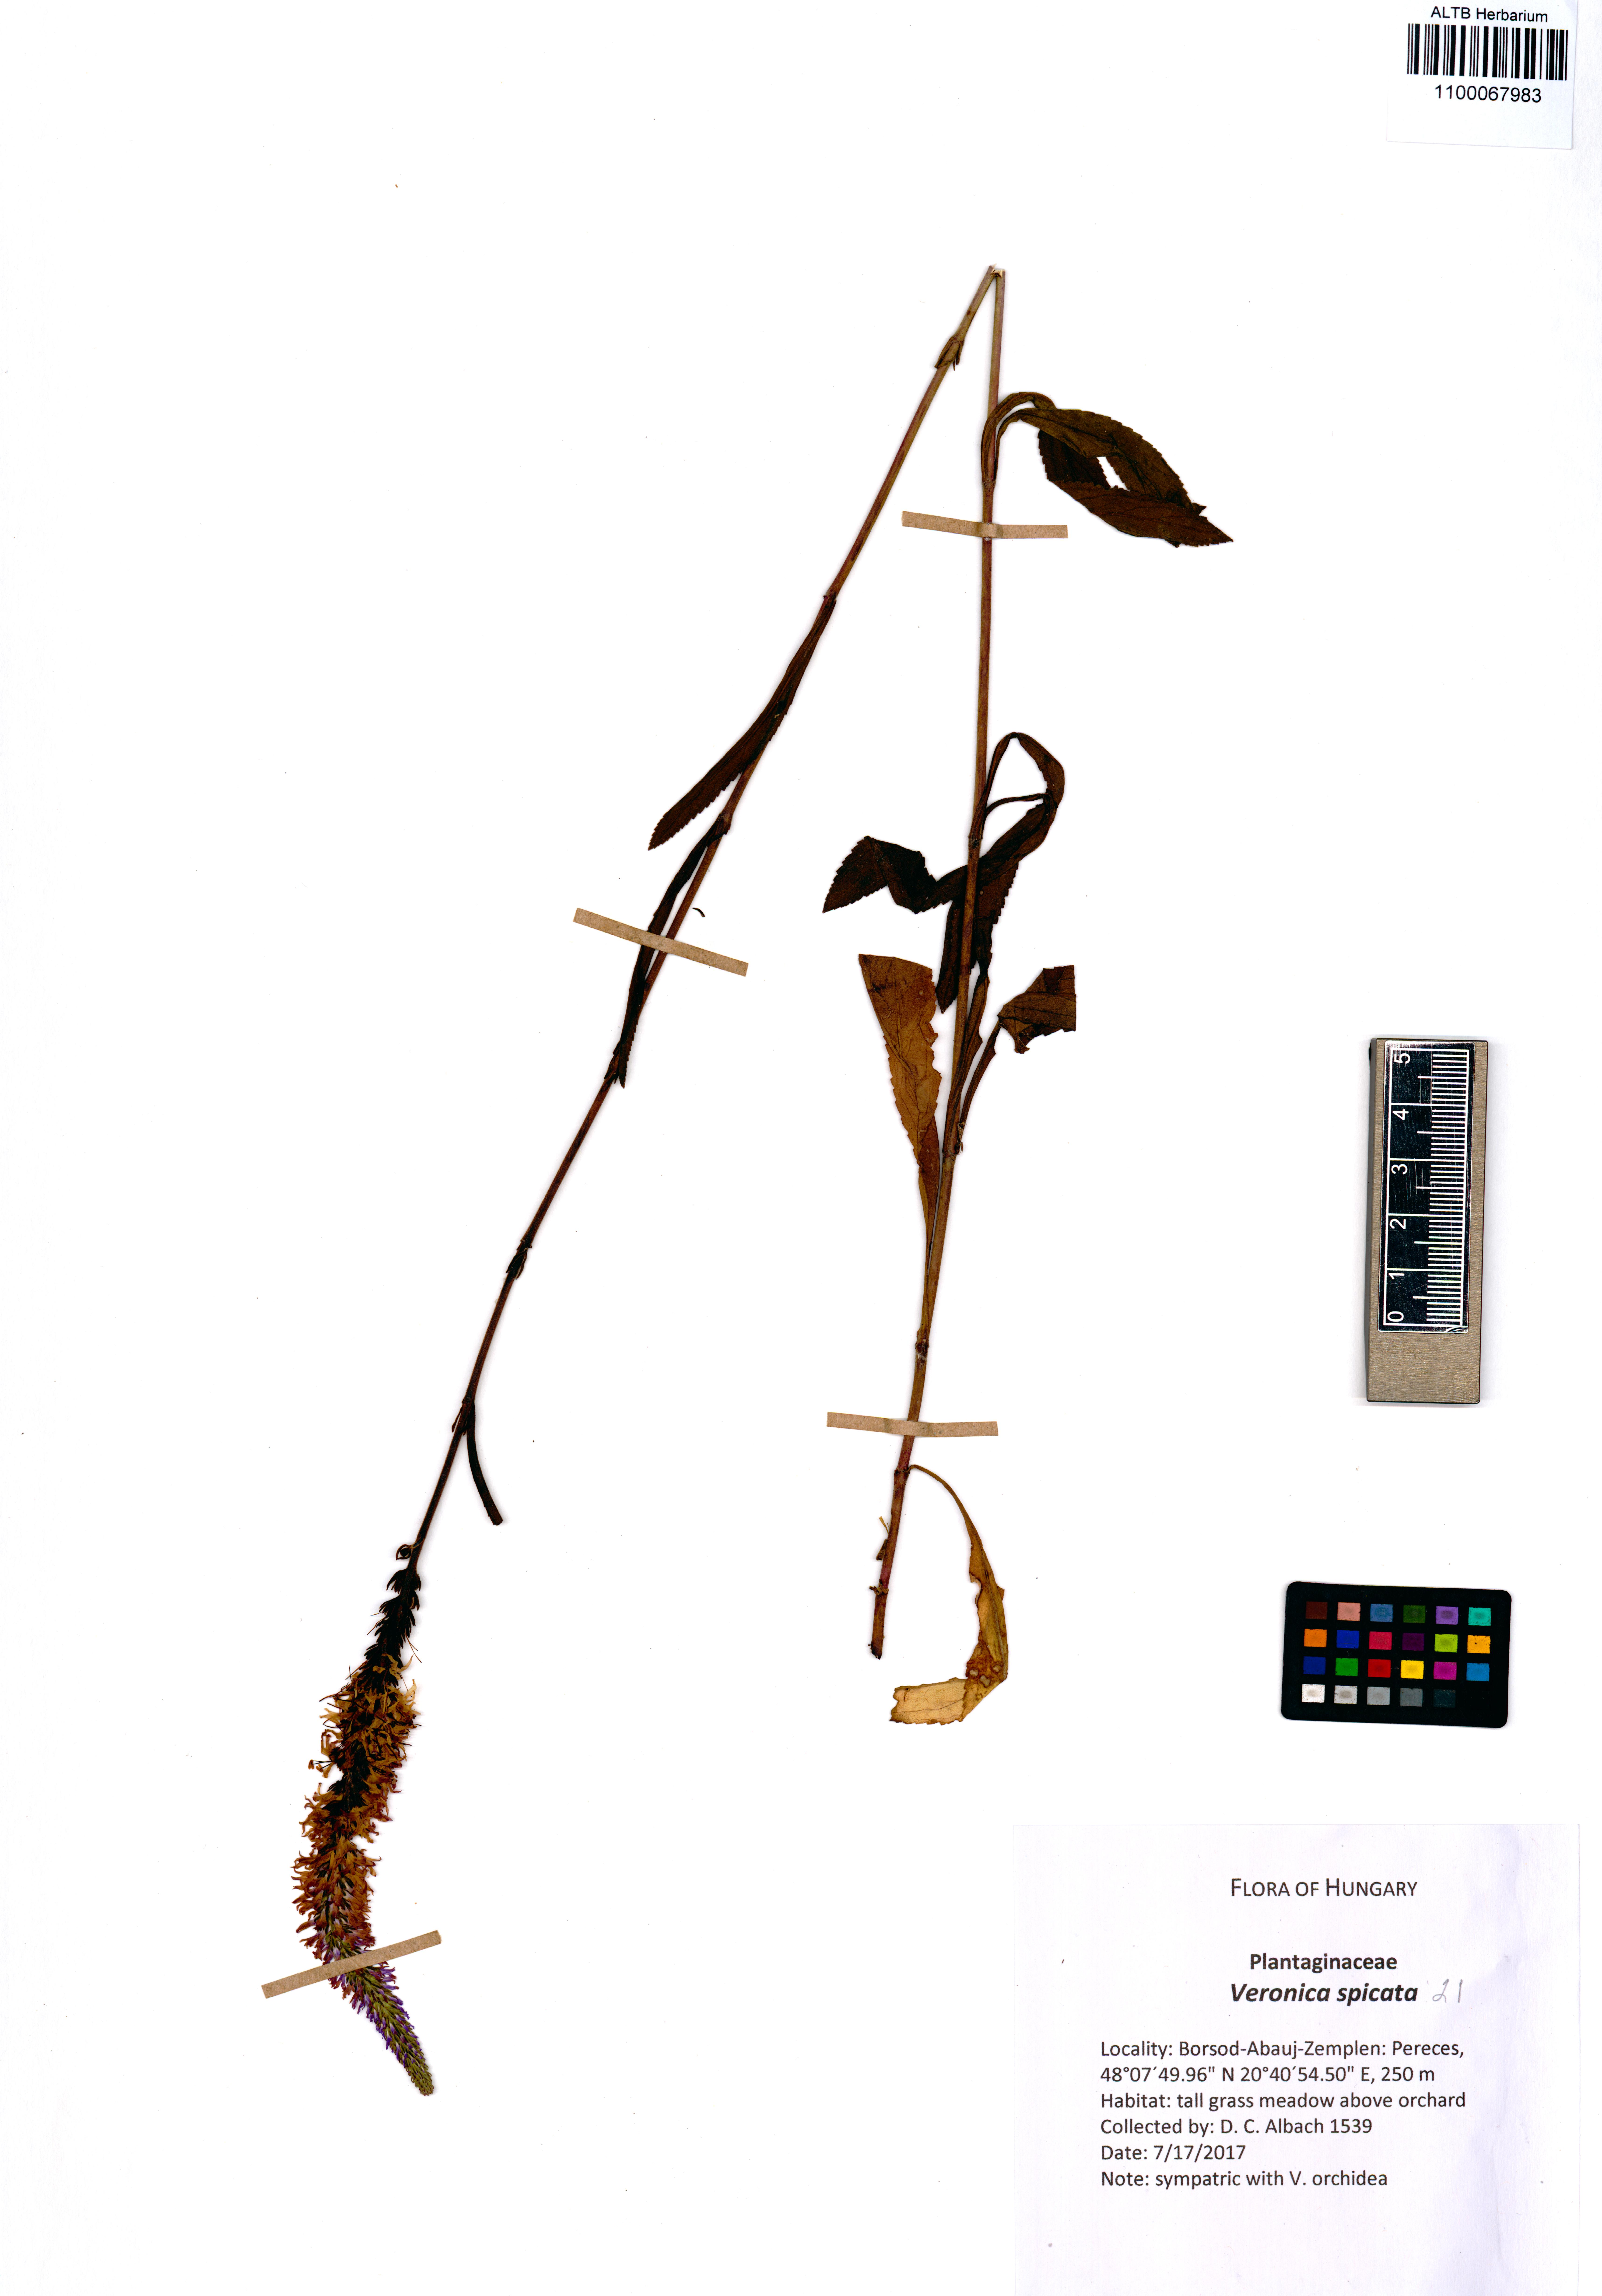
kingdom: Plantae
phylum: Tracheophyta
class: Magnoliopsida
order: Lamiales
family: Plantaginaceae
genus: Veronica
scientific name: Veronica spicata
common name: Spiked speedwell
